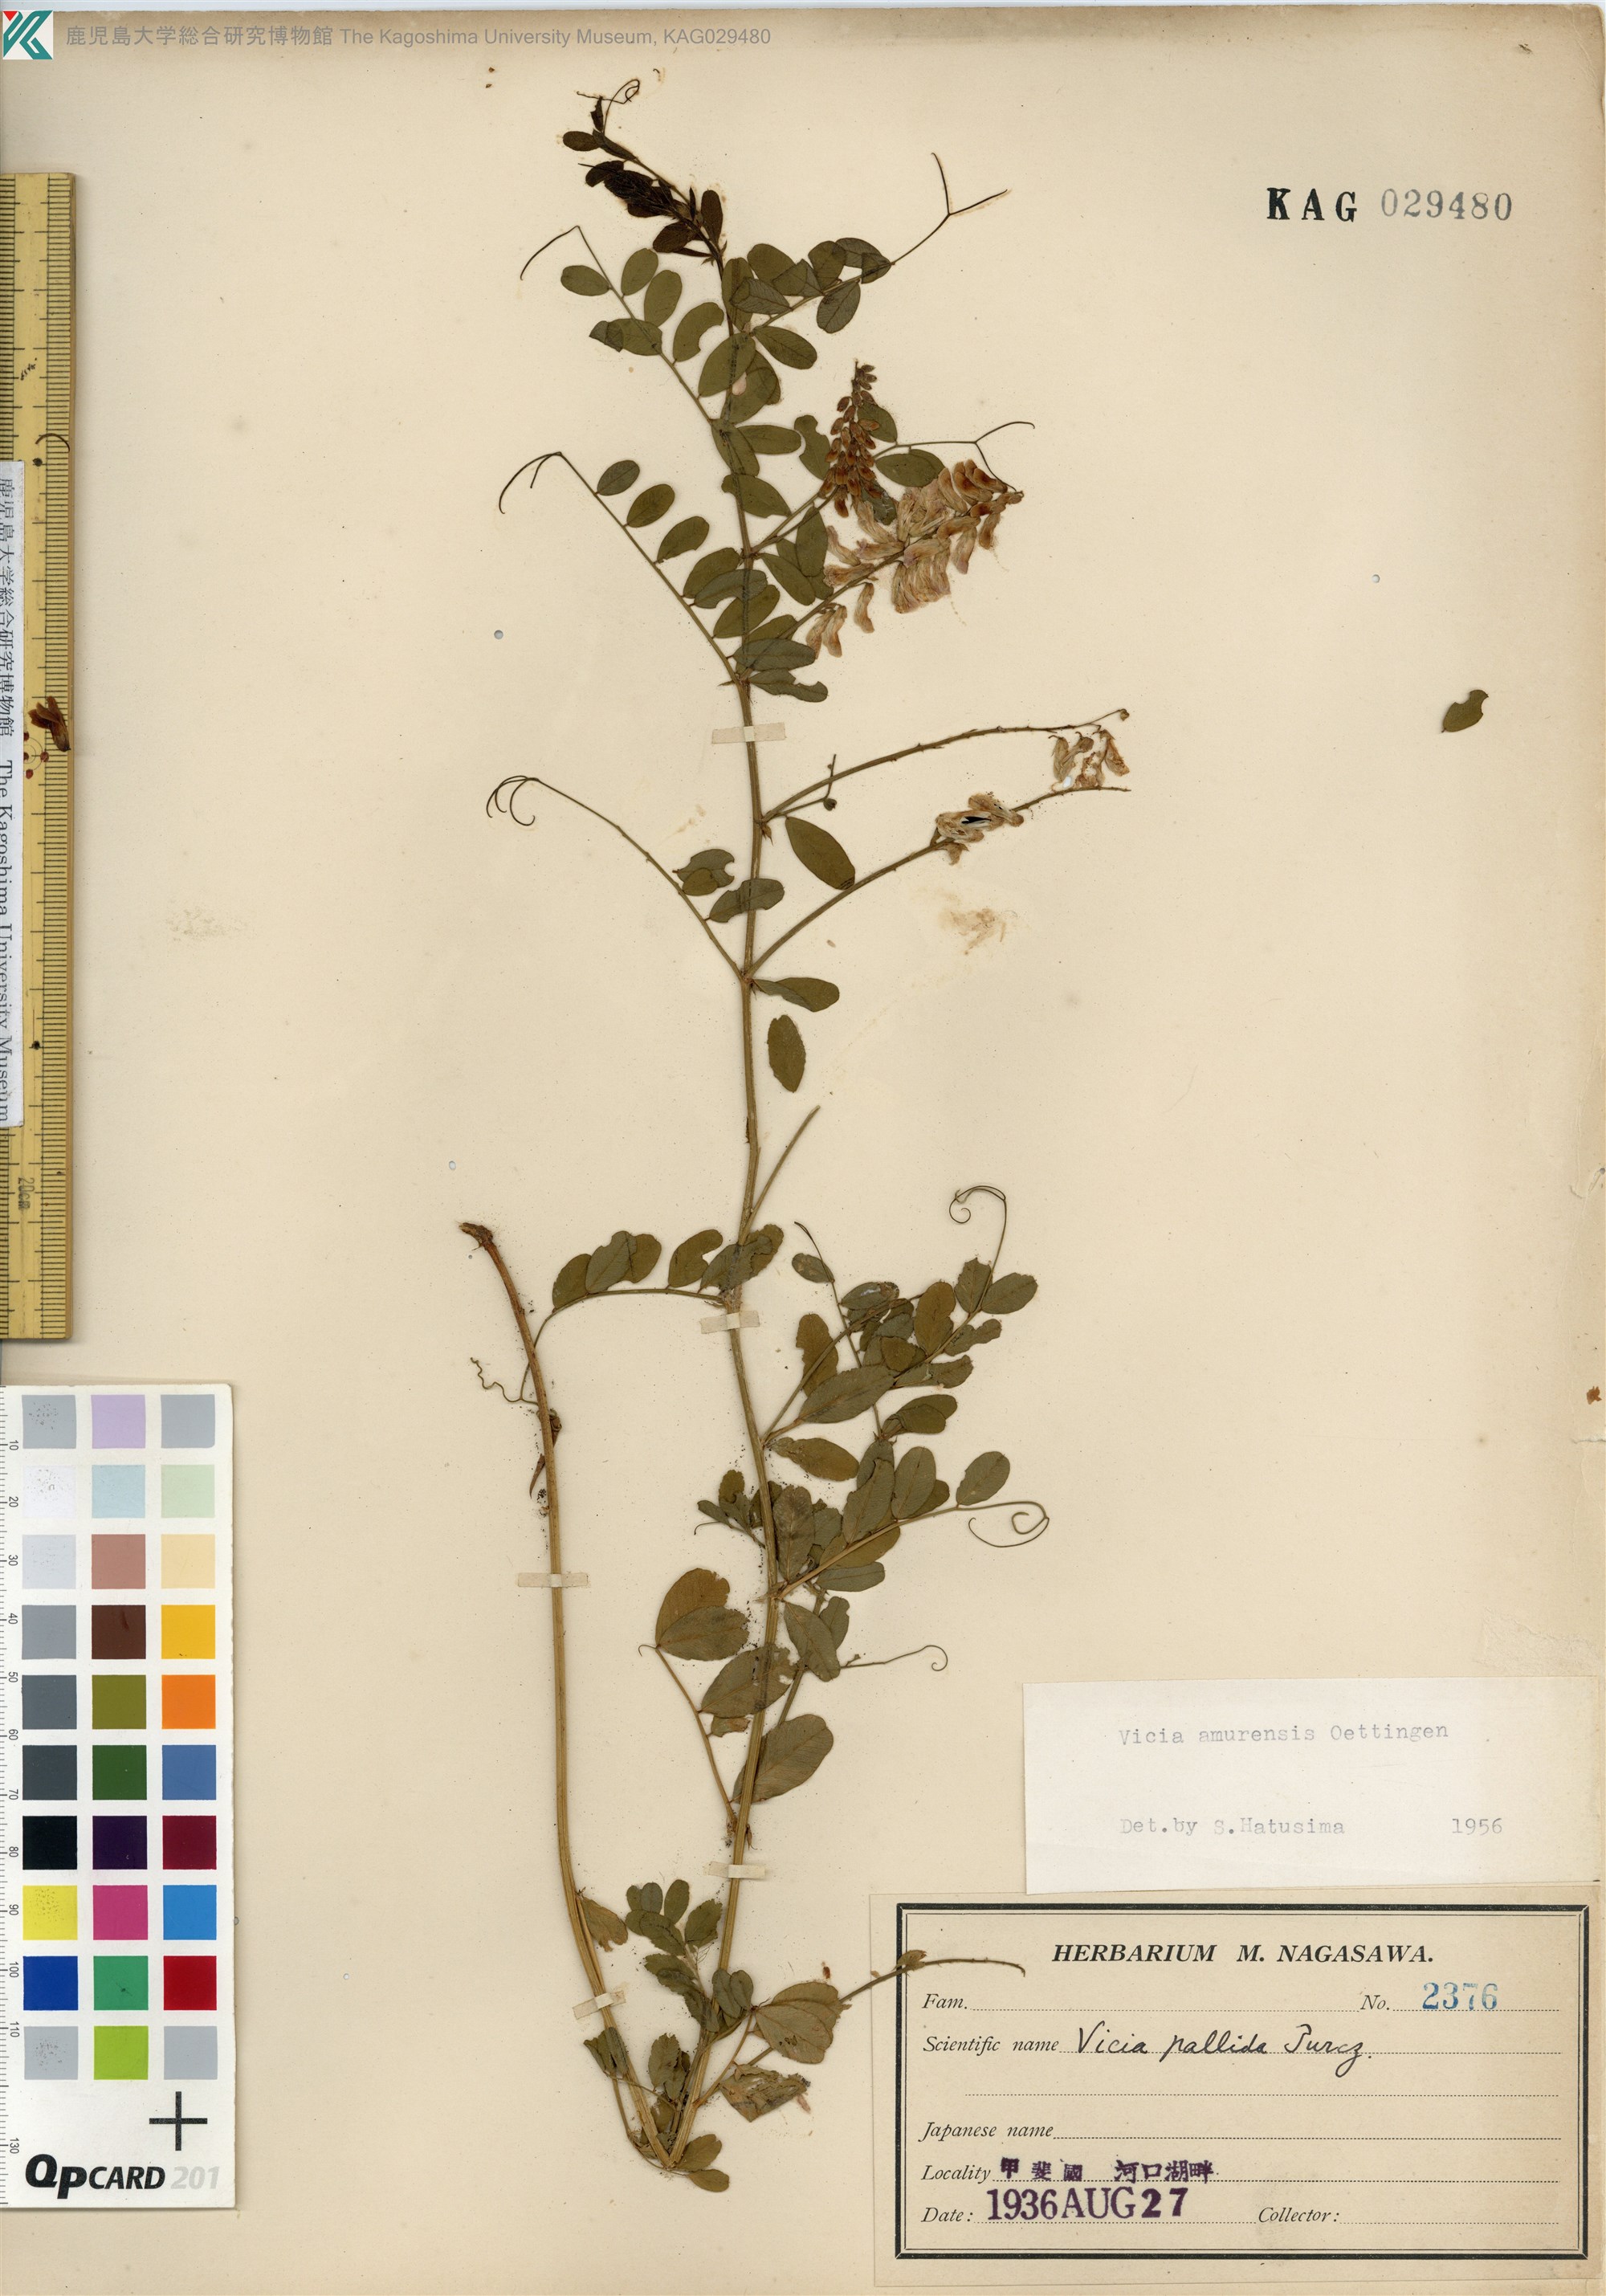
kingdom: Plantae
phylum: Tracheophyta
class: Magnoliopsida
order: Fabales
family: Fabaceae
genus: Vicia
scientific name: Vicia amurensis
